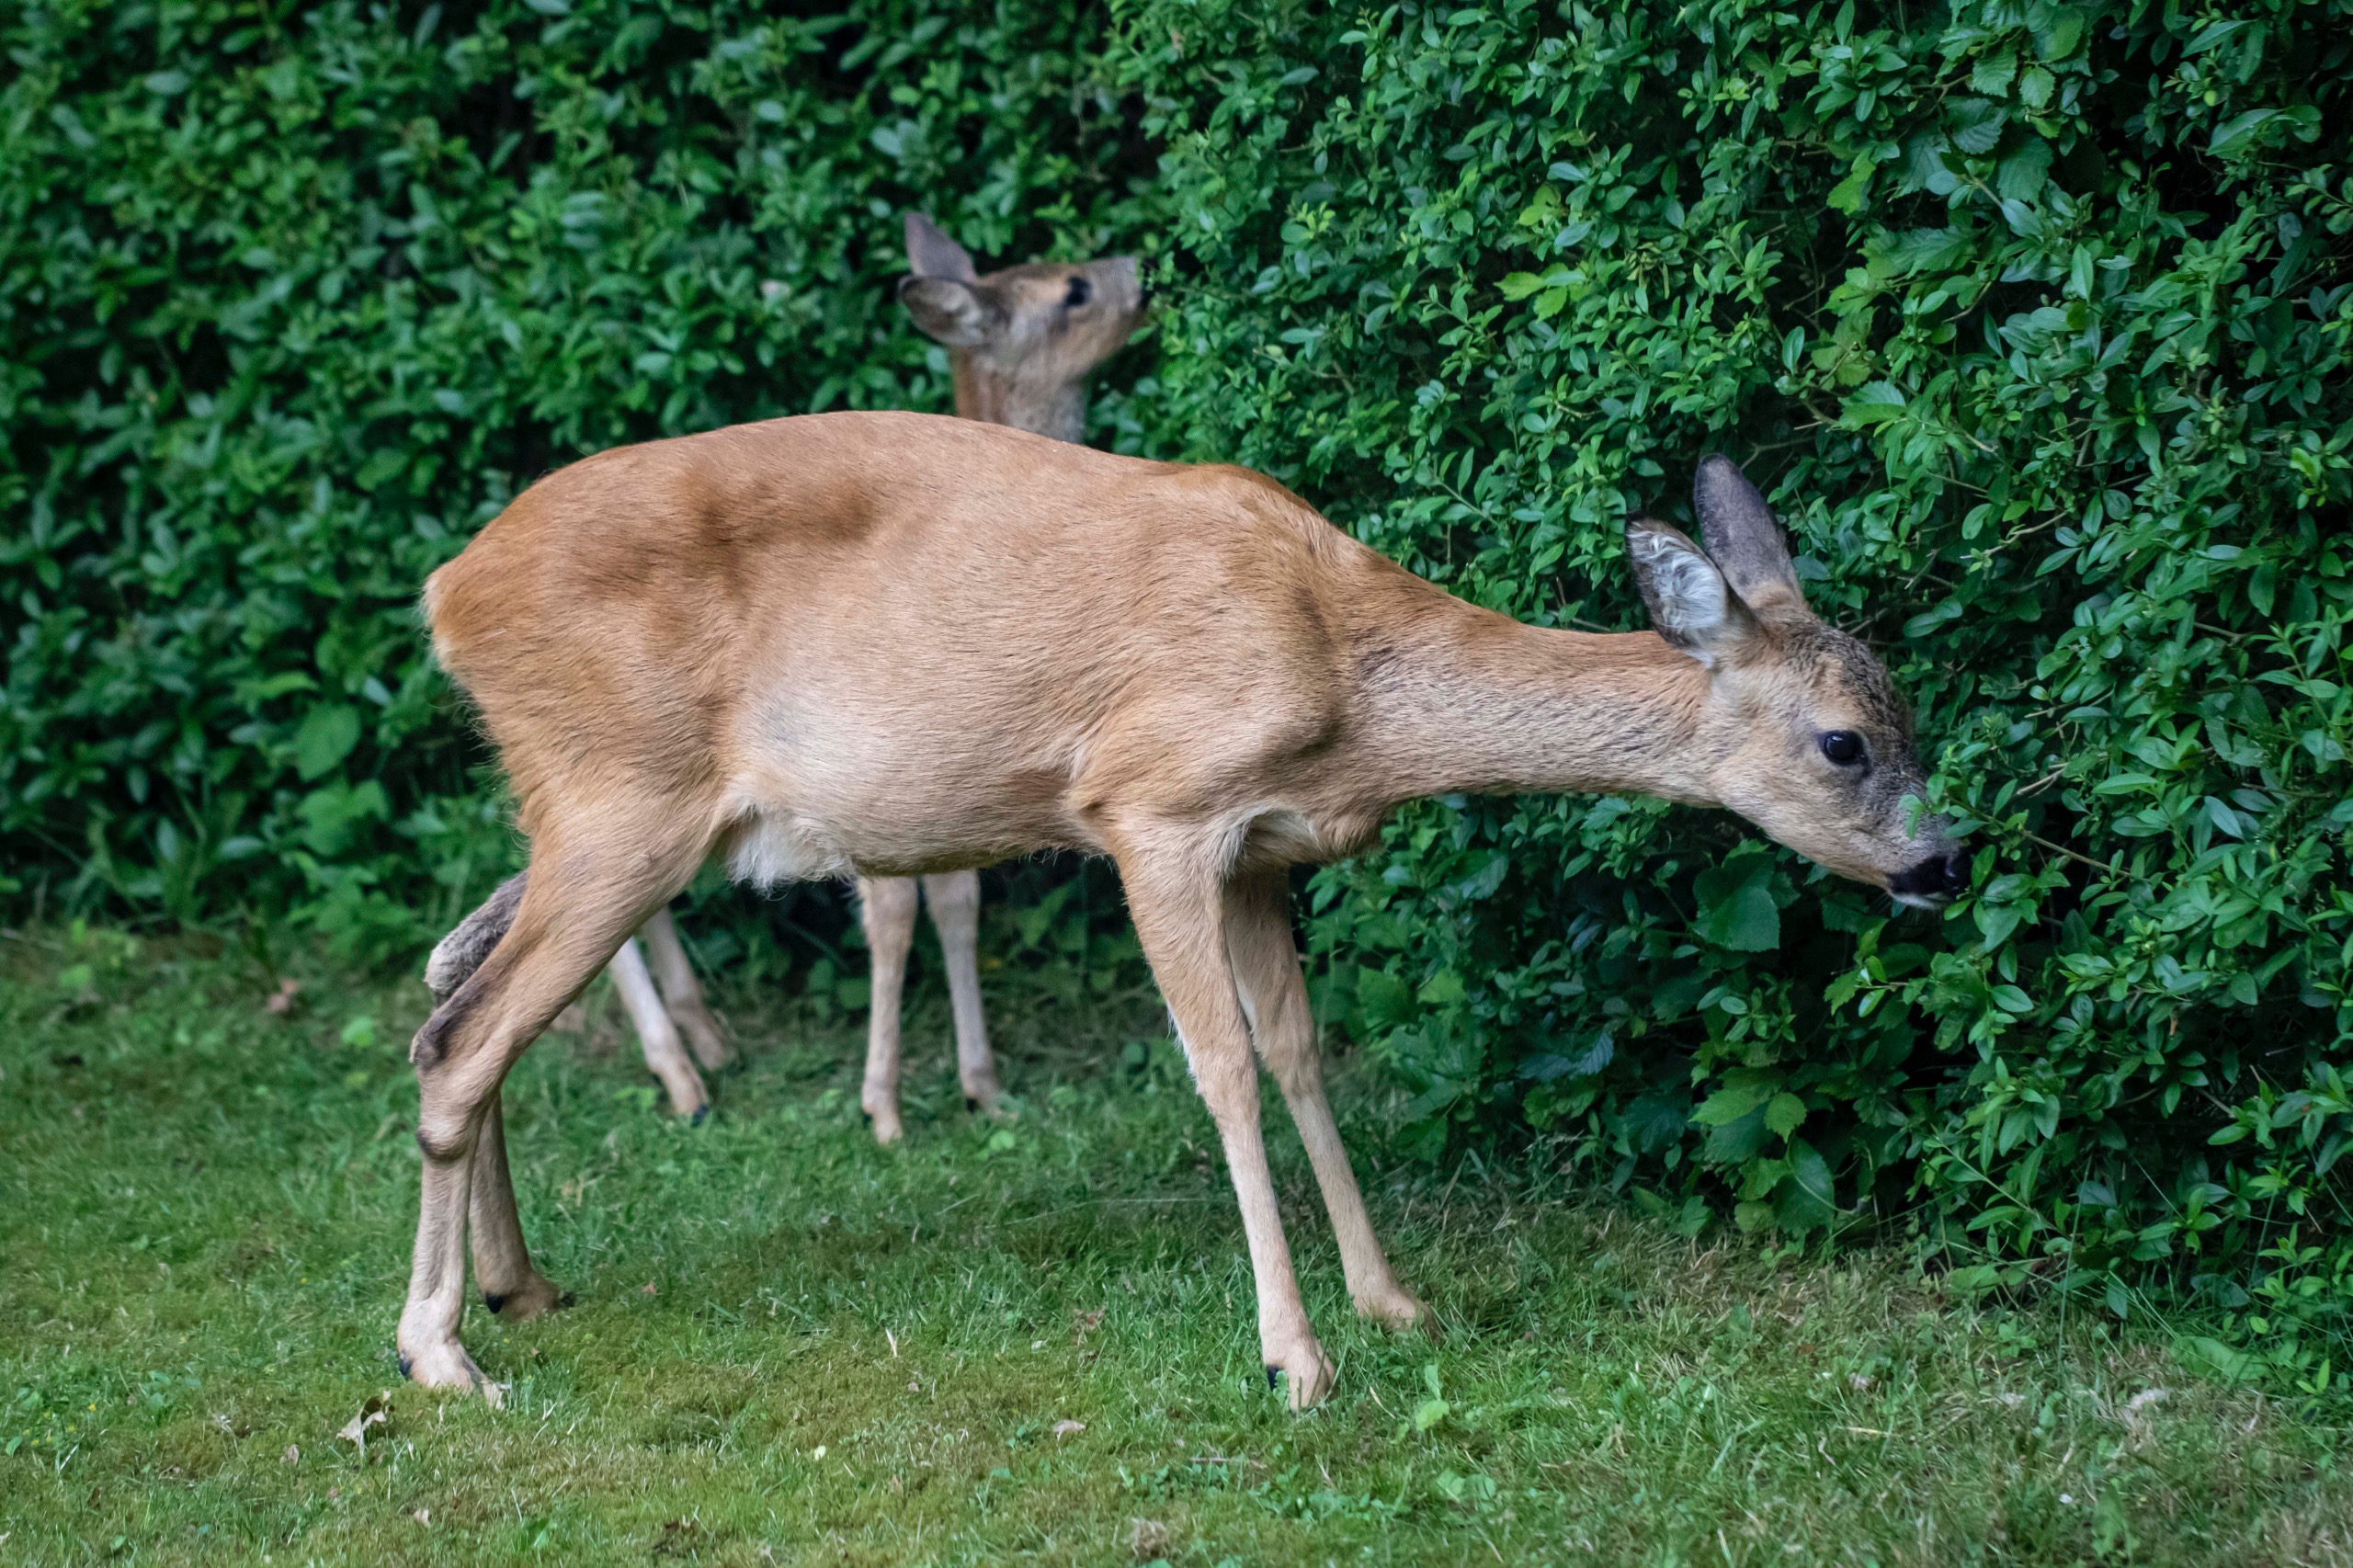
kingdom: Animalia
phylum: Chordata
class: Mammalia
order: Artiodactyla
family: Cervidae
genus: Capreolus
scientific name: Capreolus capreolus
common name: Rådyr
